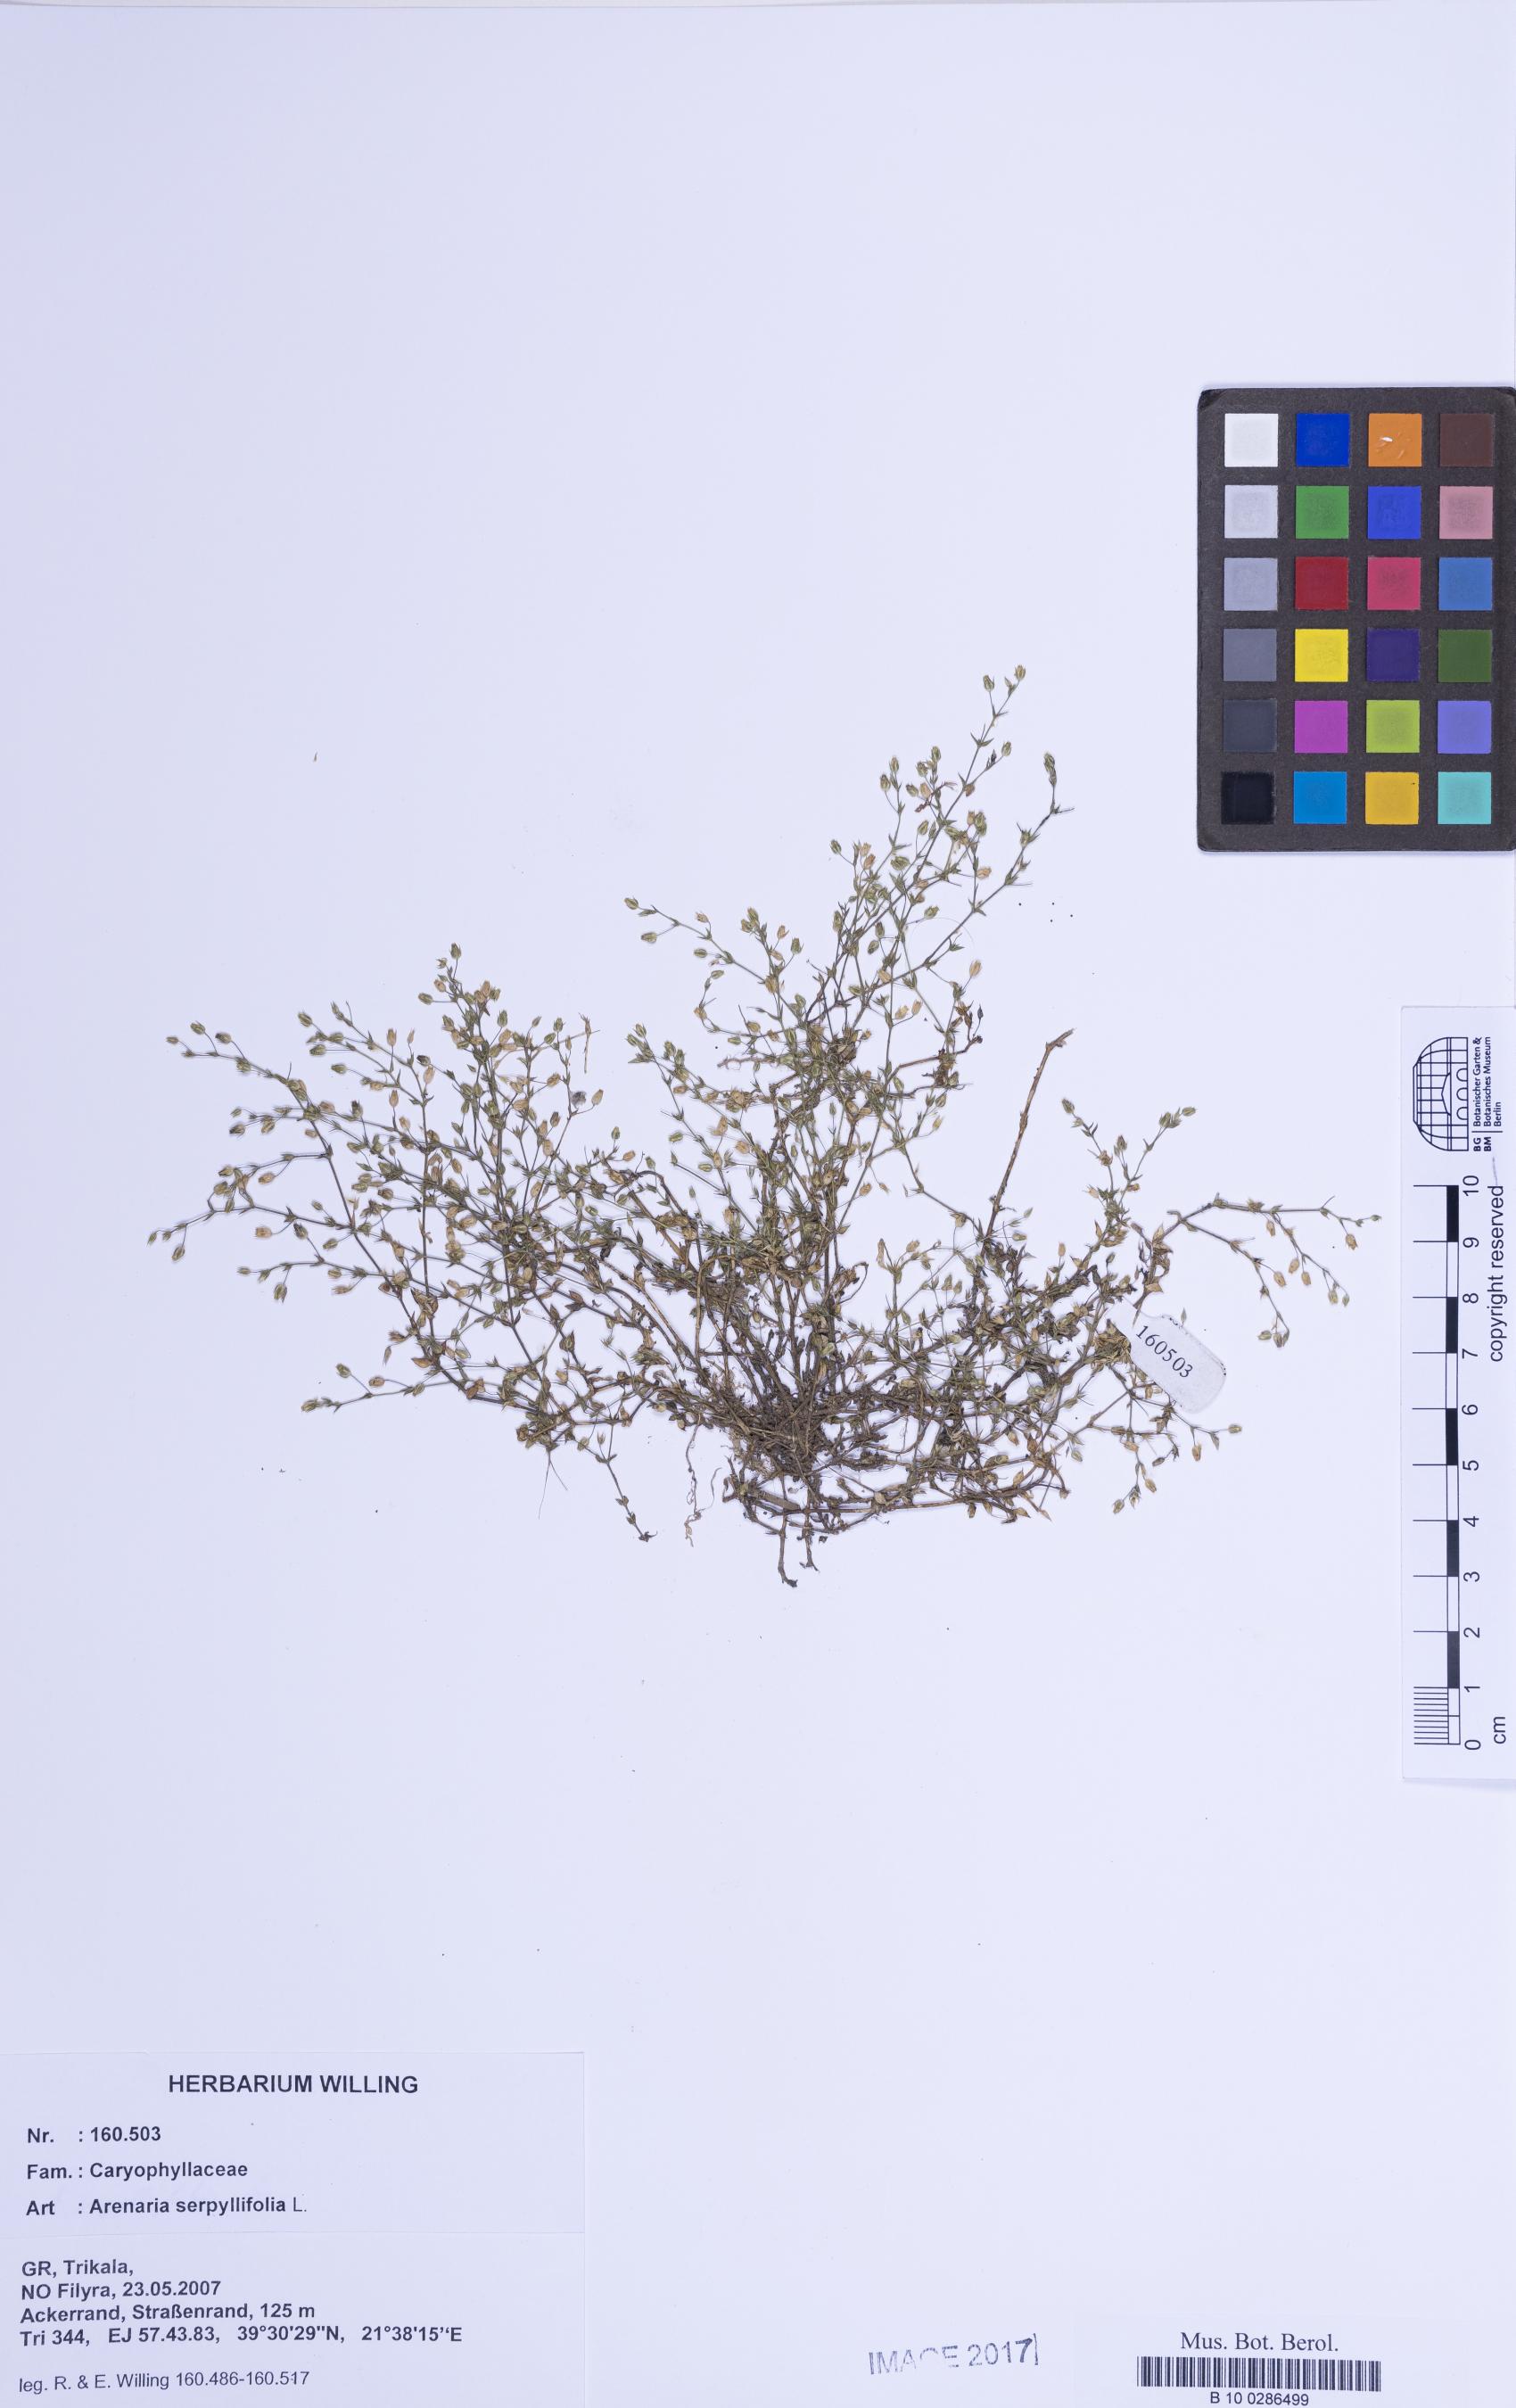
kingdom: Plantae
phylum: Tracheophyta
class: Magnoliopsida
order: Caryophyllales
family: Caryophyllaceae
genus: Arenaria
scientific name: Arenaria serpyllifolia
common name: Thyme-leaved sandwort
